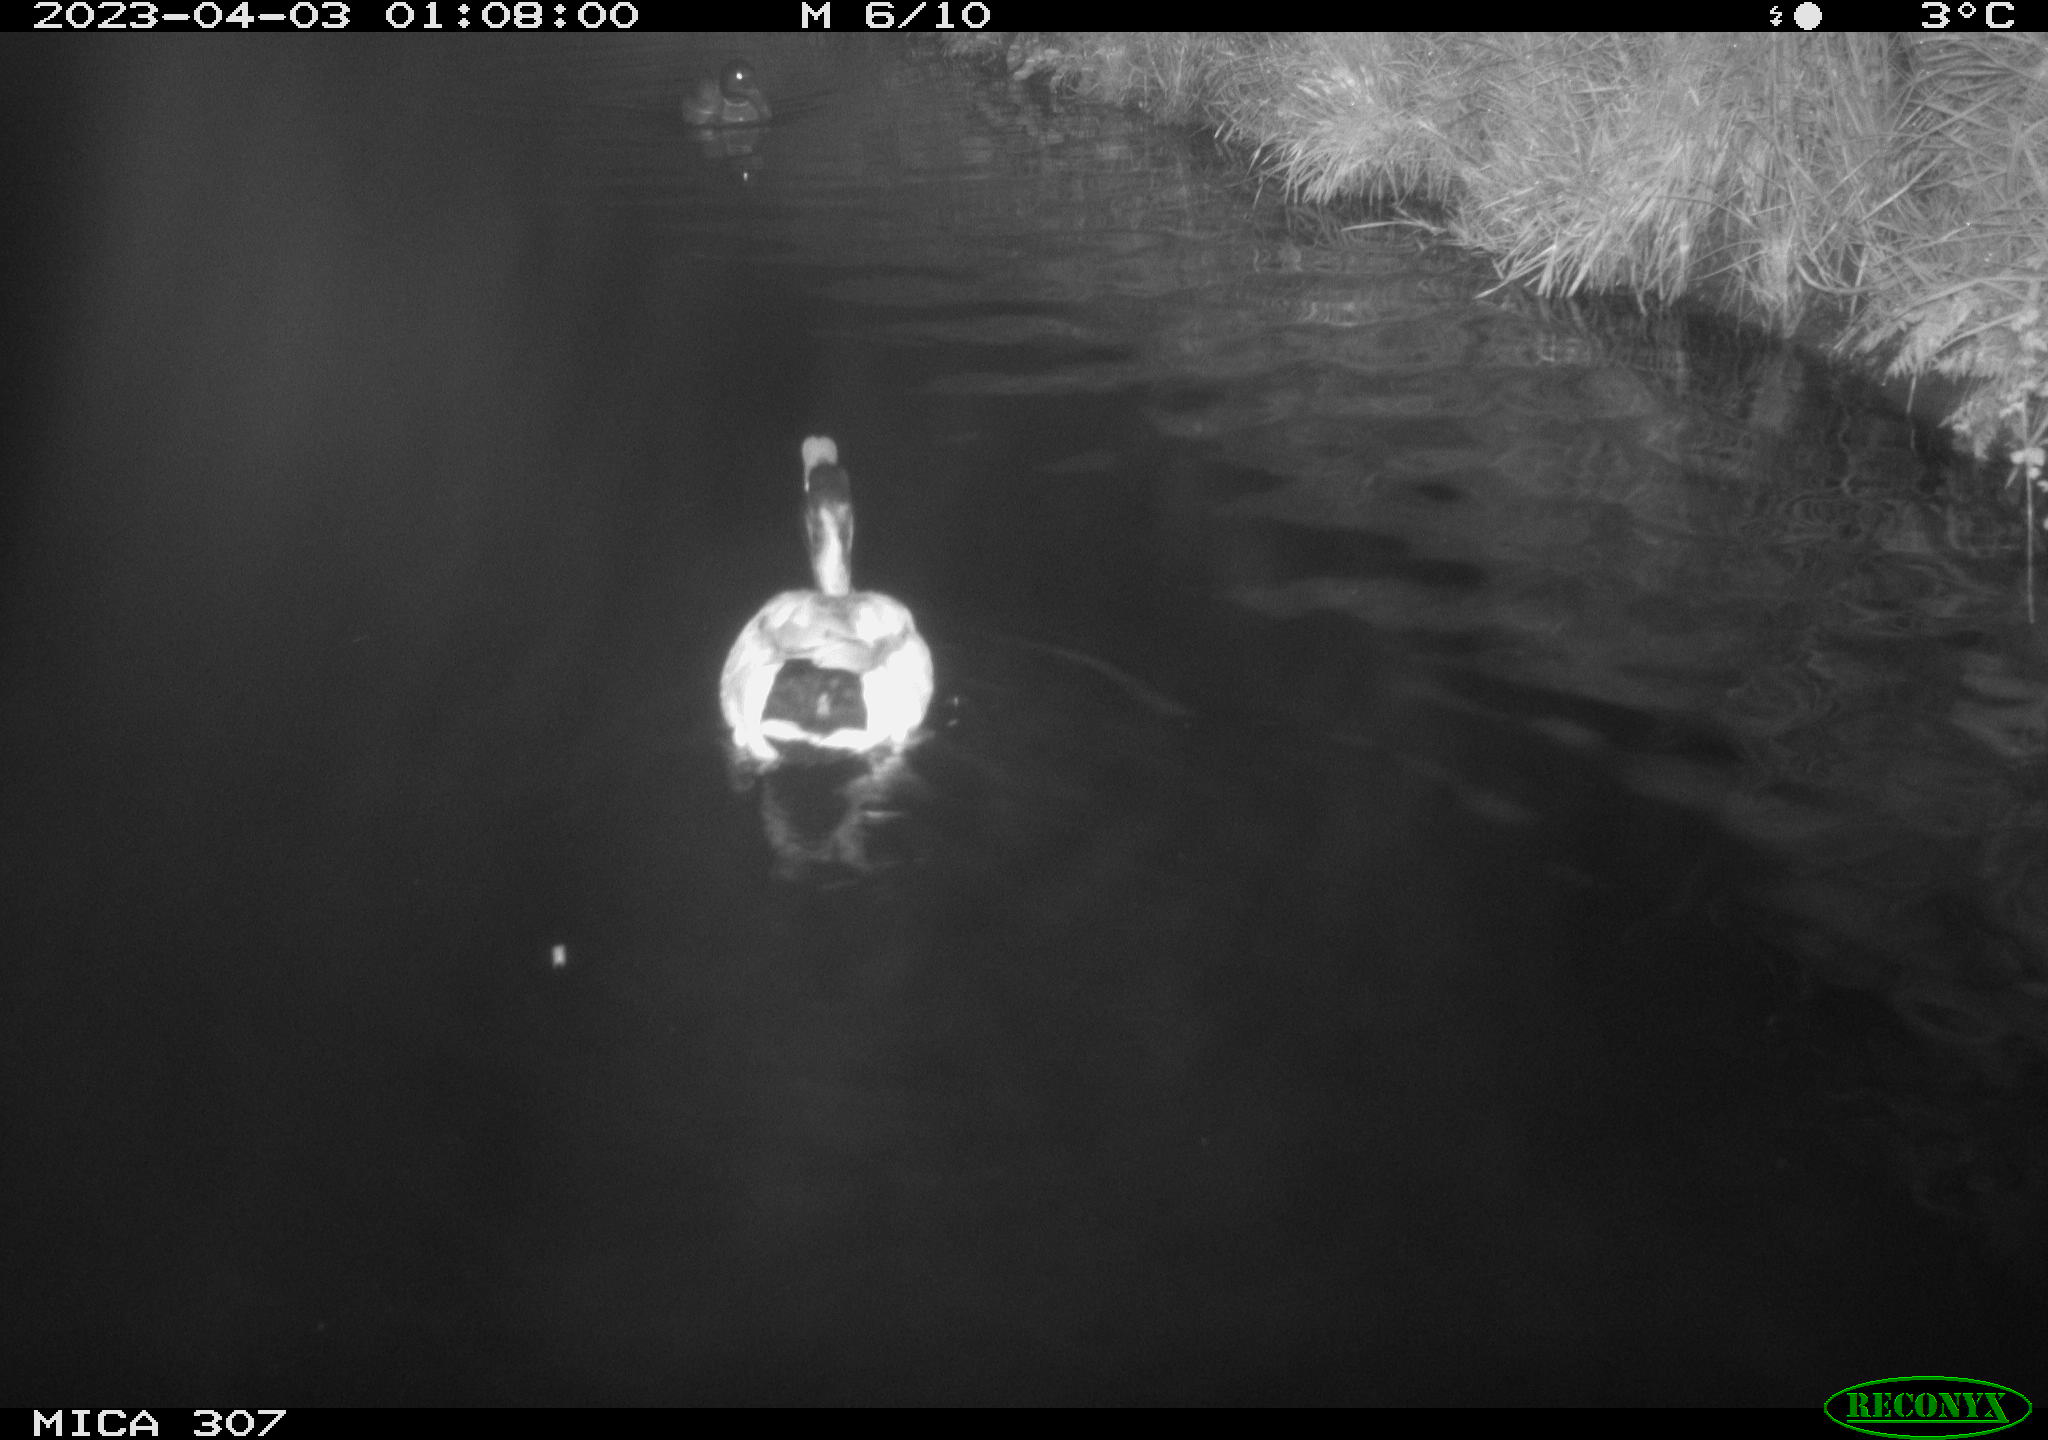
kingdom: Animalia
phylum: Chordata
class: Aves
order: Pelecaniformes
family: Ardeidae
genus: Ardea
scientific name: Ardea cinerea
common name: Grey heron
